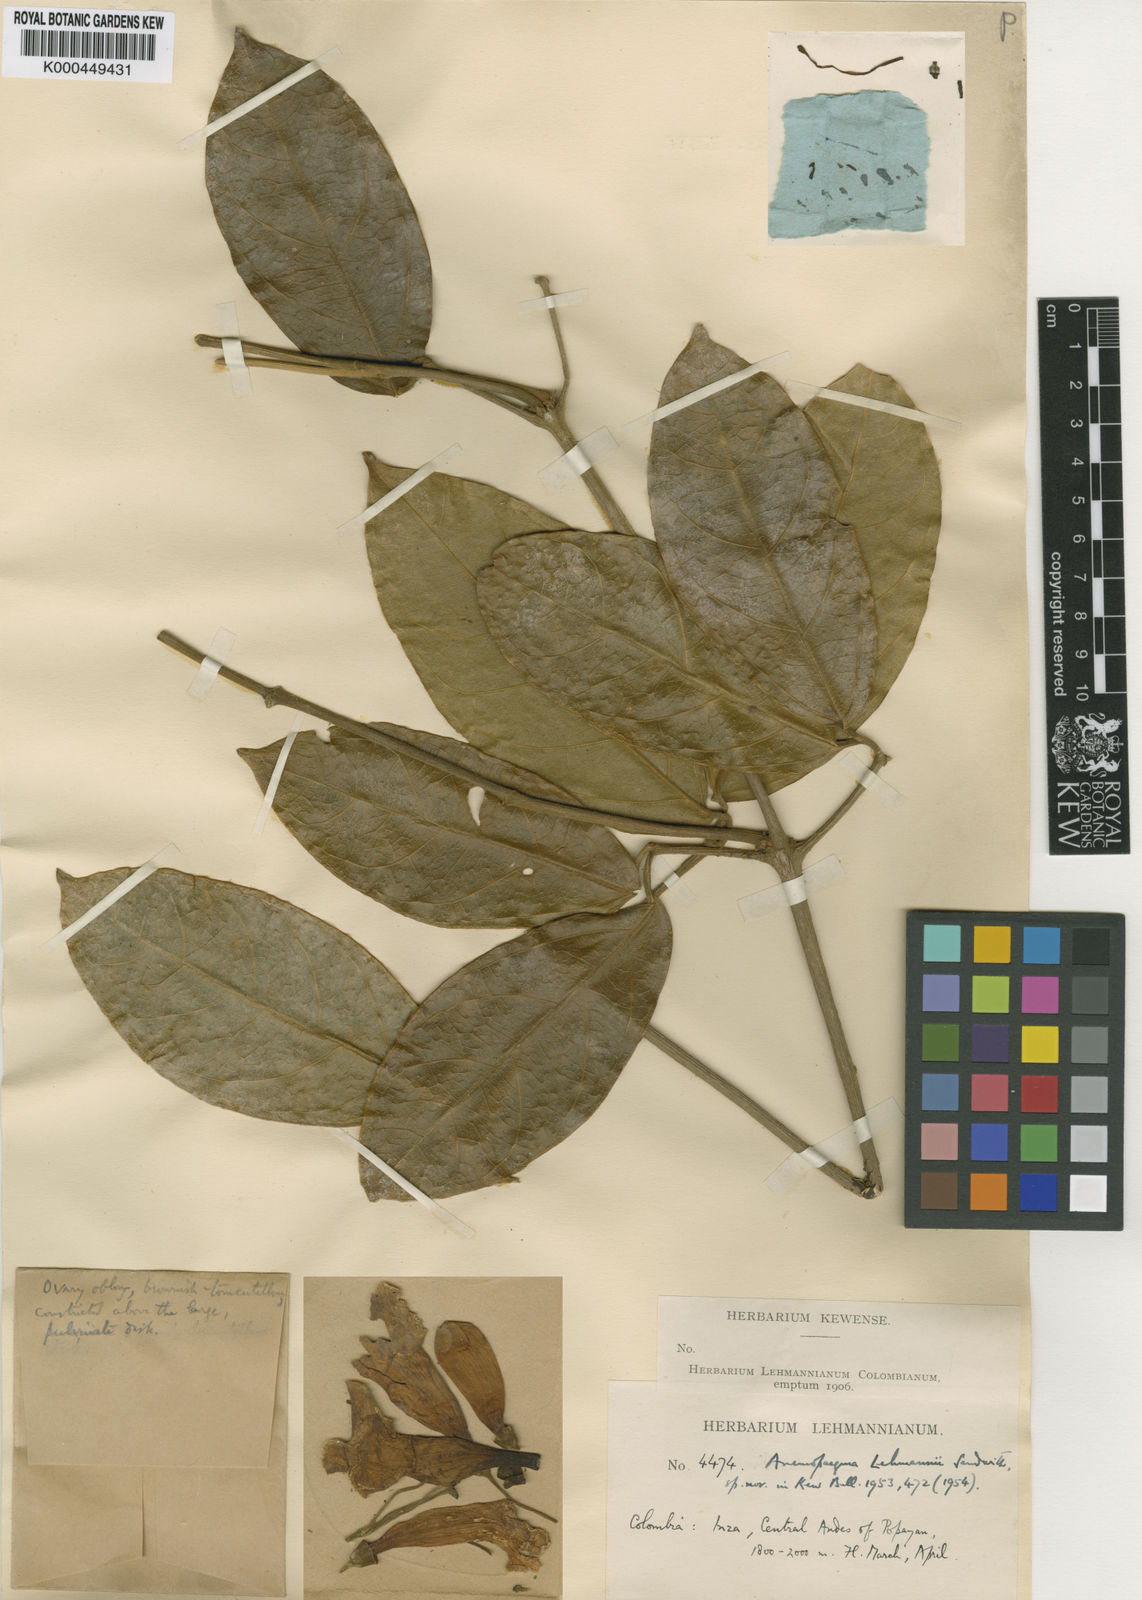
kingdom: Plantae
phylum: Tracheophyta
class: Magnoliopsida
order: Lamiales
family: Bignoniaceae
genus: Anemopaegma
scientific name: Anemopaegma puberulum
